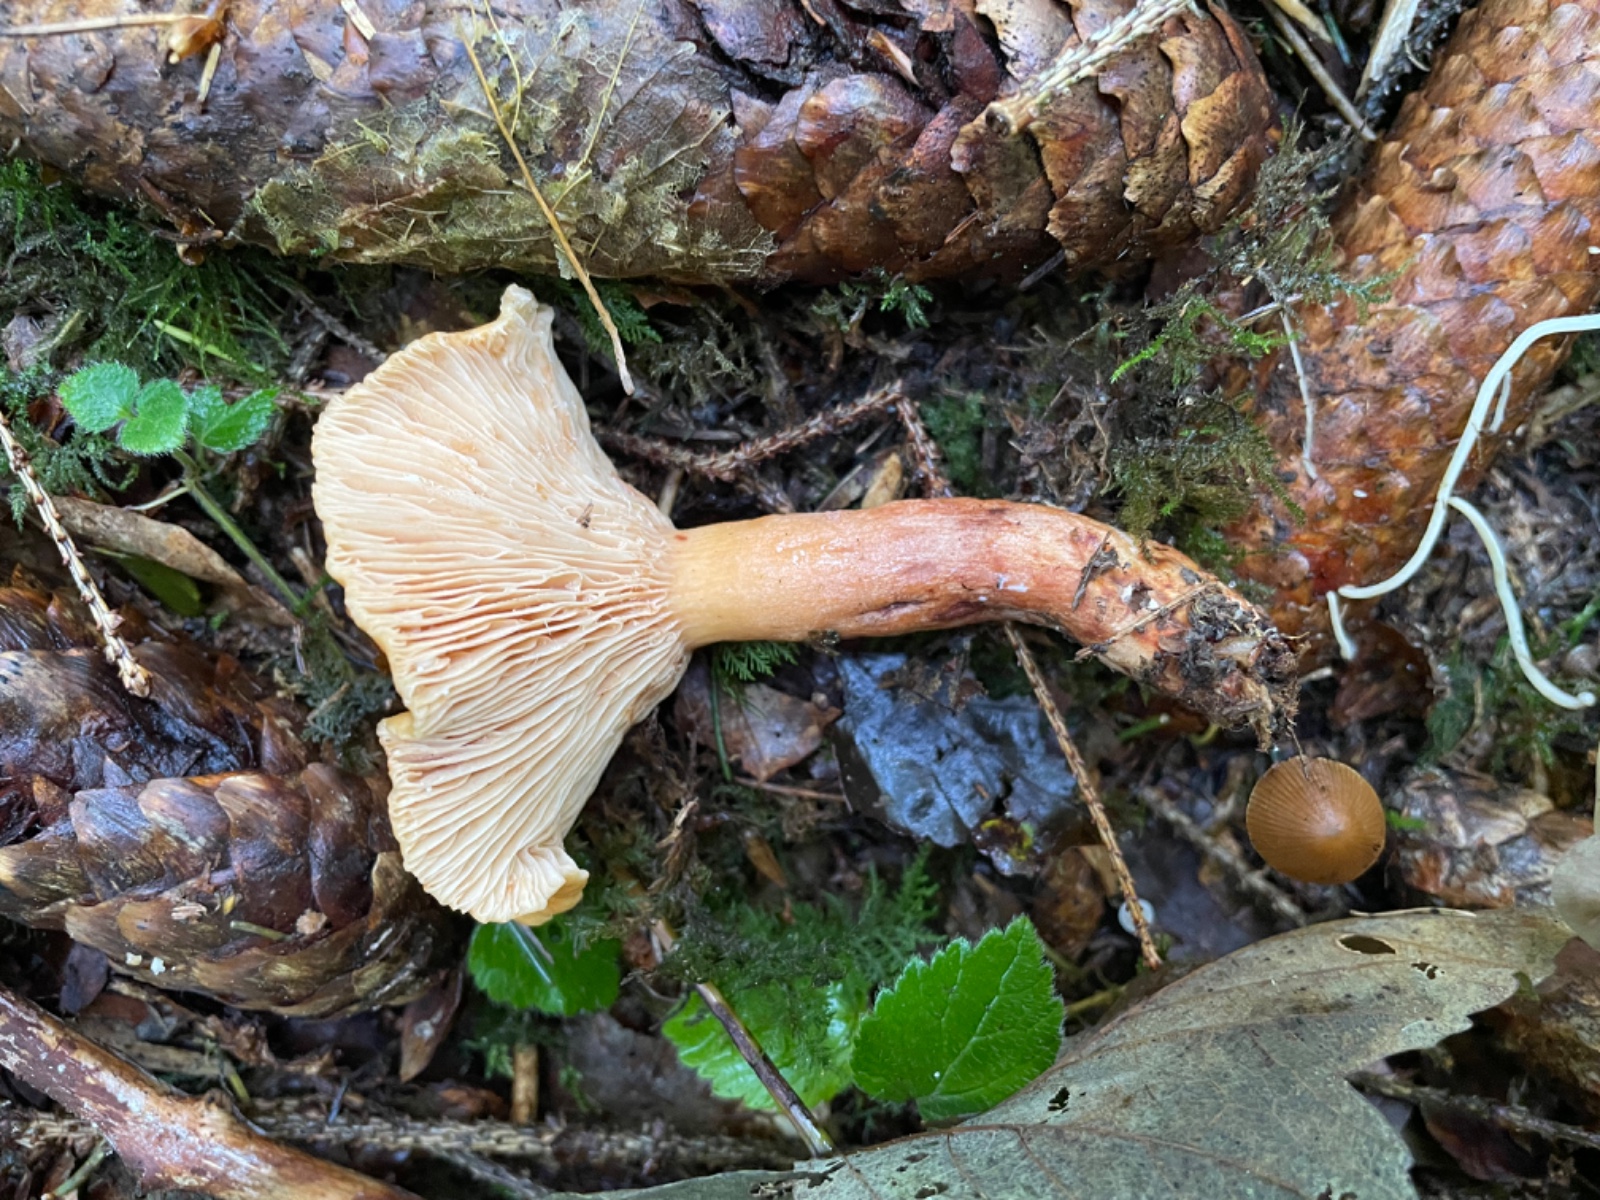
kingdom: Fungi
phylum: Basidiomycota
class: Agaricomycetes
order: Russulales
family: Russulaceae
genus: Lactarius
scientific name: Lactarius
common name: mælkehat
